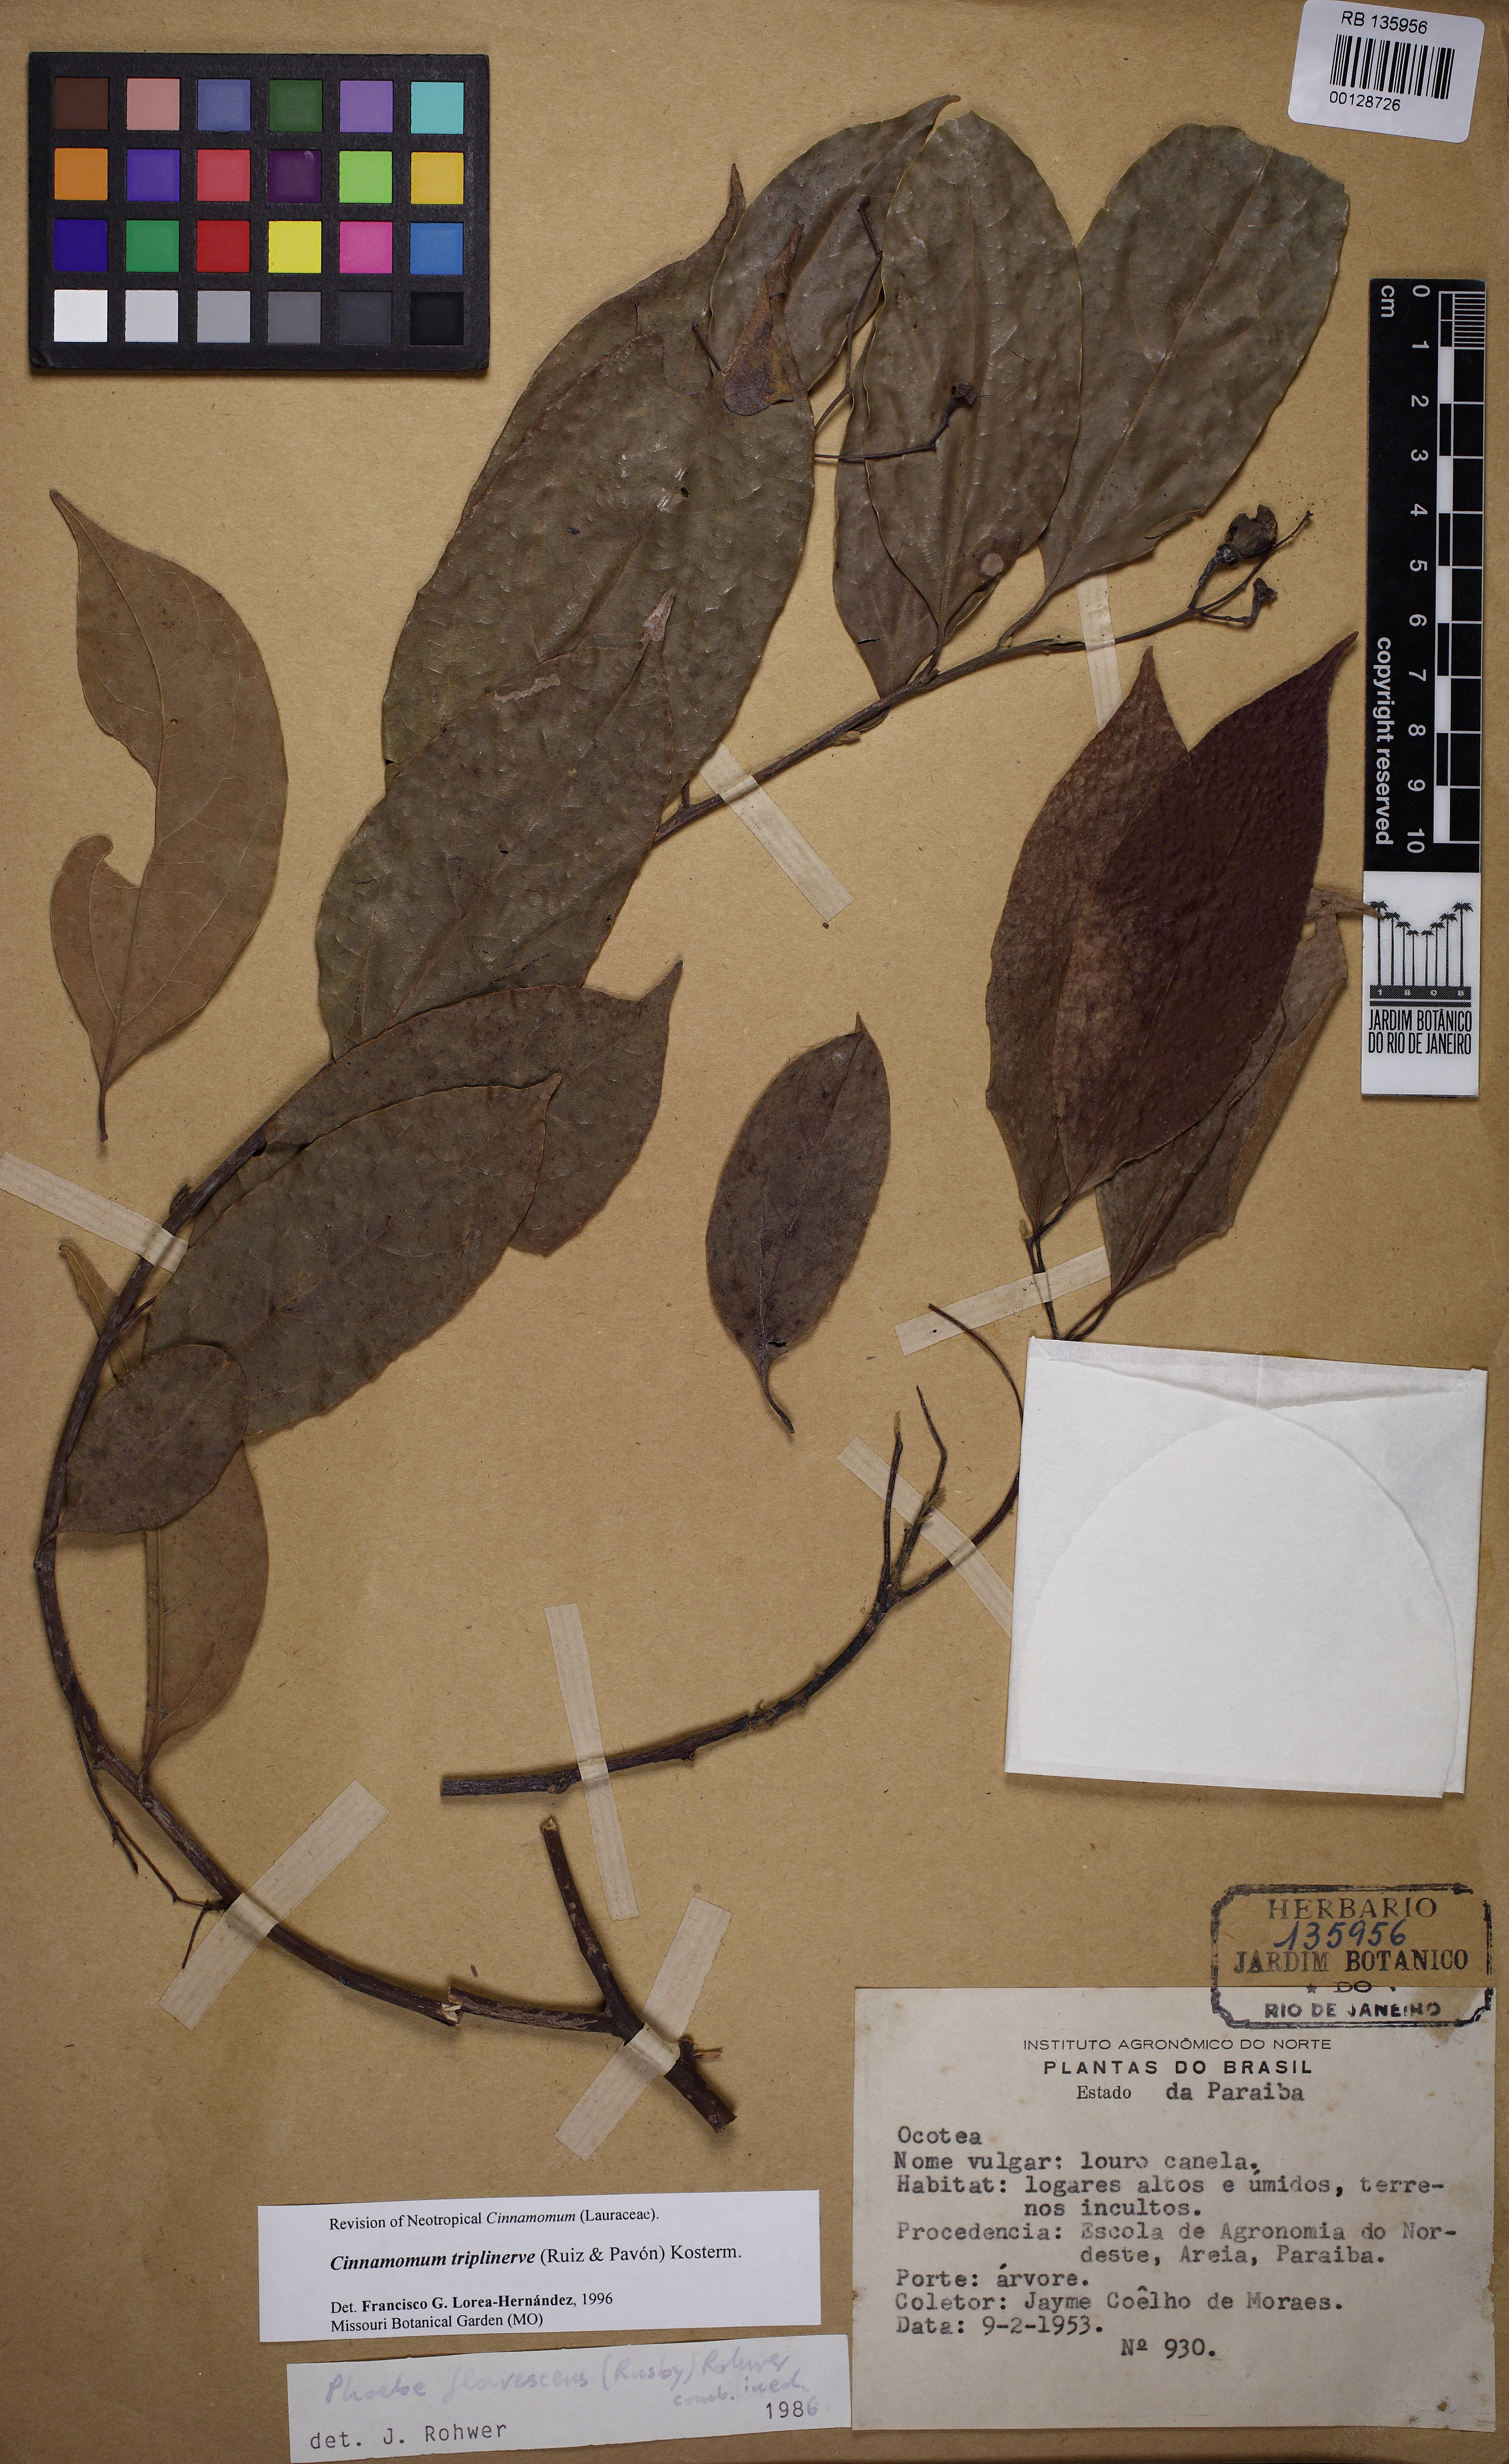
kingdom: Plantae
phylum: Tracheophyta
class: Magnoliopsida
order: Laurales
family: Lauraceae
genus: Aiouea
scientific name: Aiouea montana
